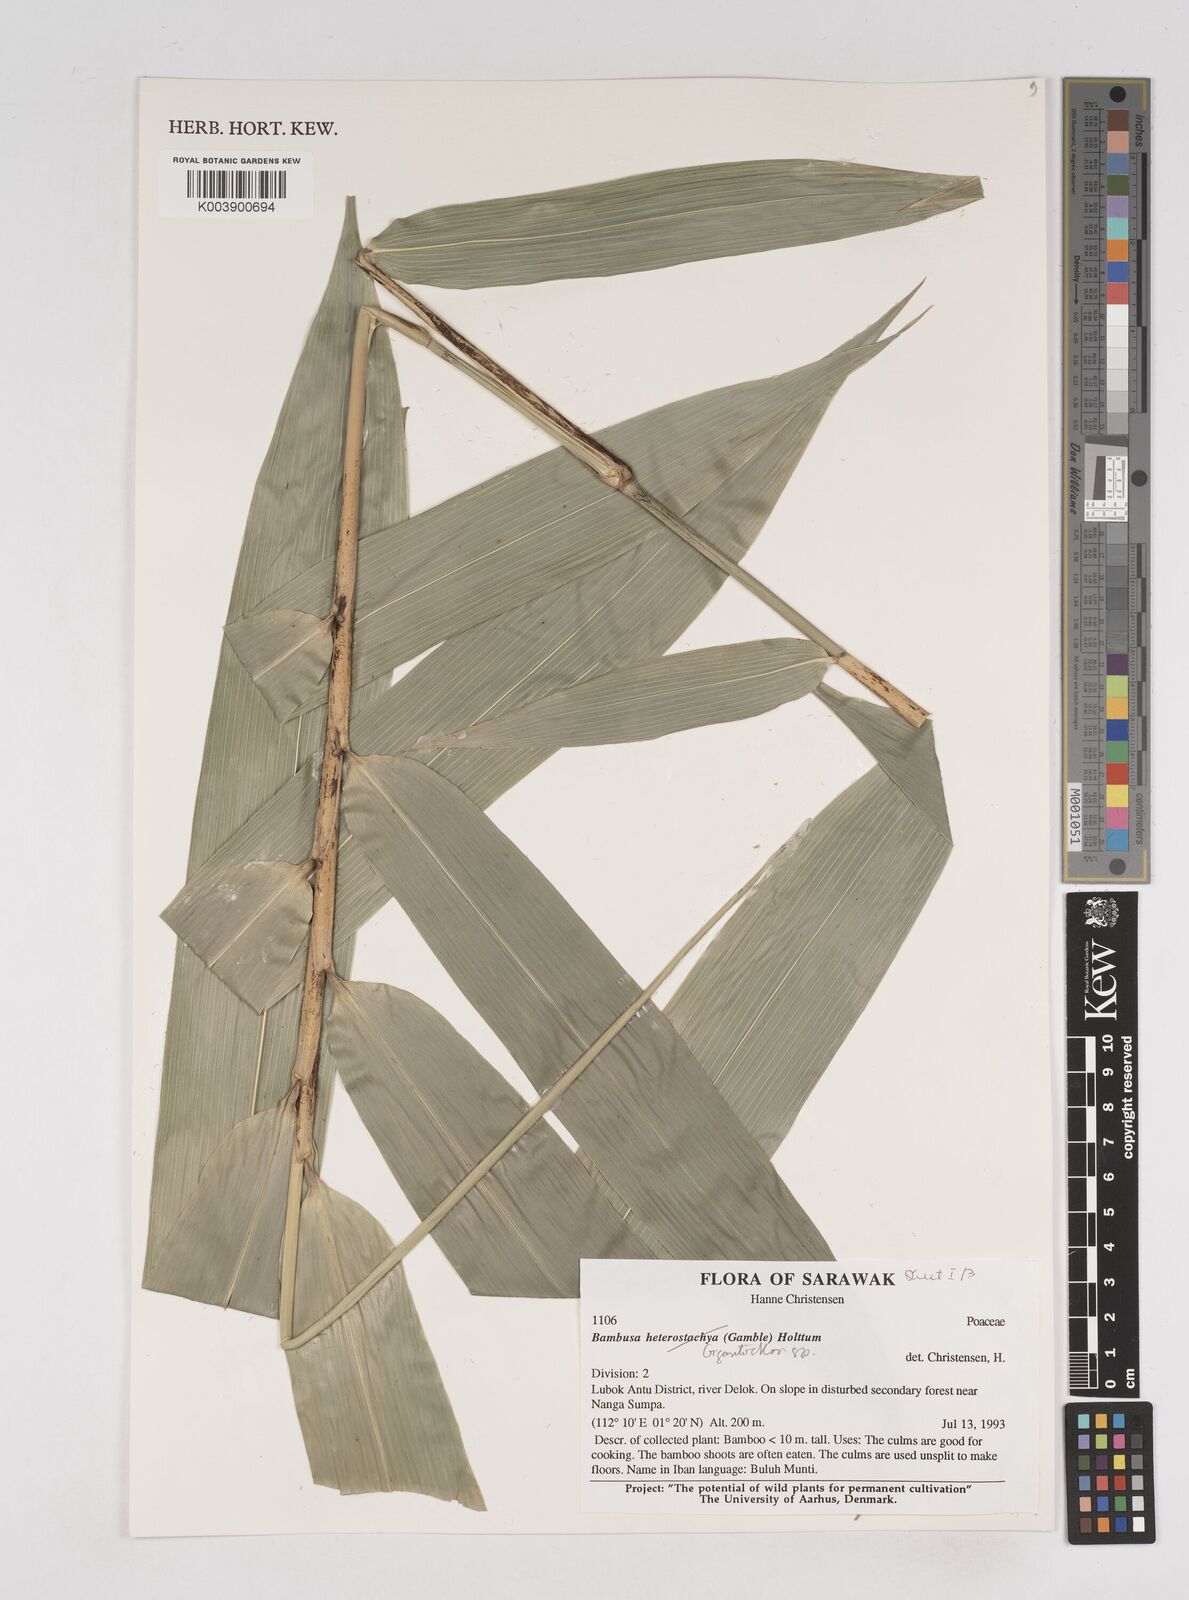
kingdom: Plantae
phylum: Tracheophyta
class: Liliopsida
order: Poales
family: Poaceae
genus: Gigantochloa
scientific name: Gigantochloa
